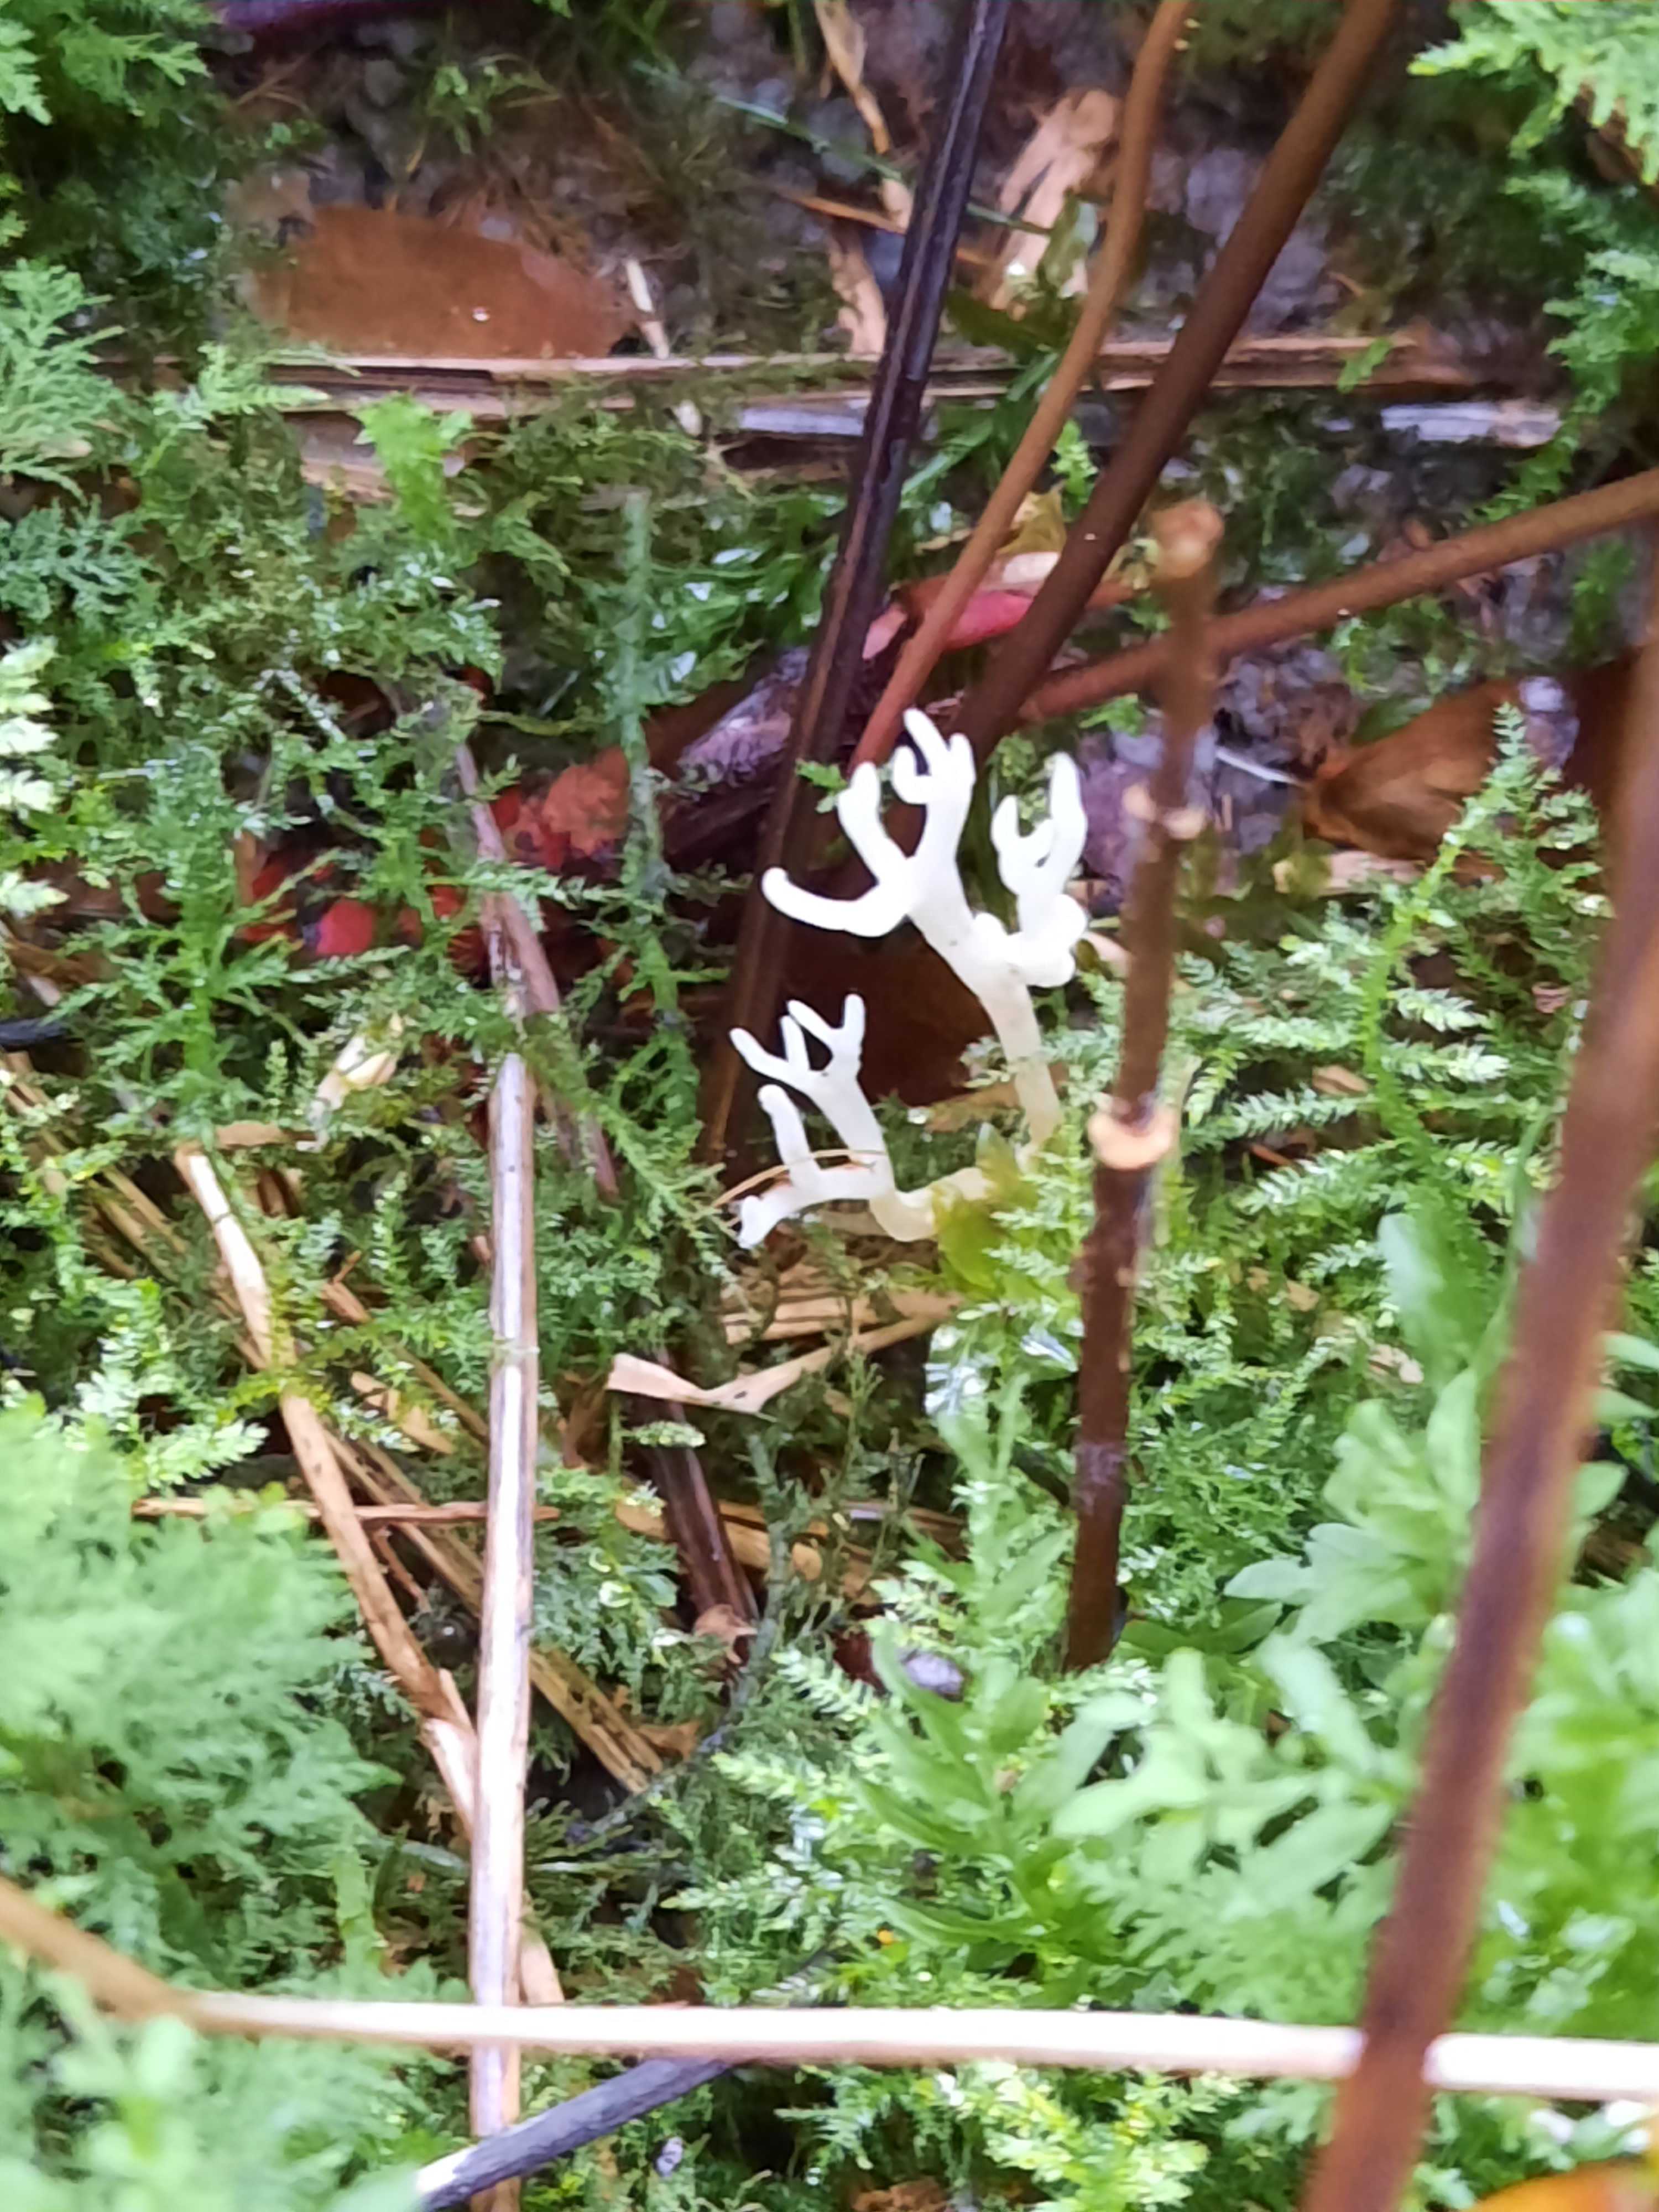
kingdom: Fungi
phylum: Basidiomycota
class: Agaricomycetes
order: Agaricales
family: Clavariaceae
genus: Ramariopsis
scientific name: Ramariopsis kunzei
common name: mangegrenet køllesvamp
